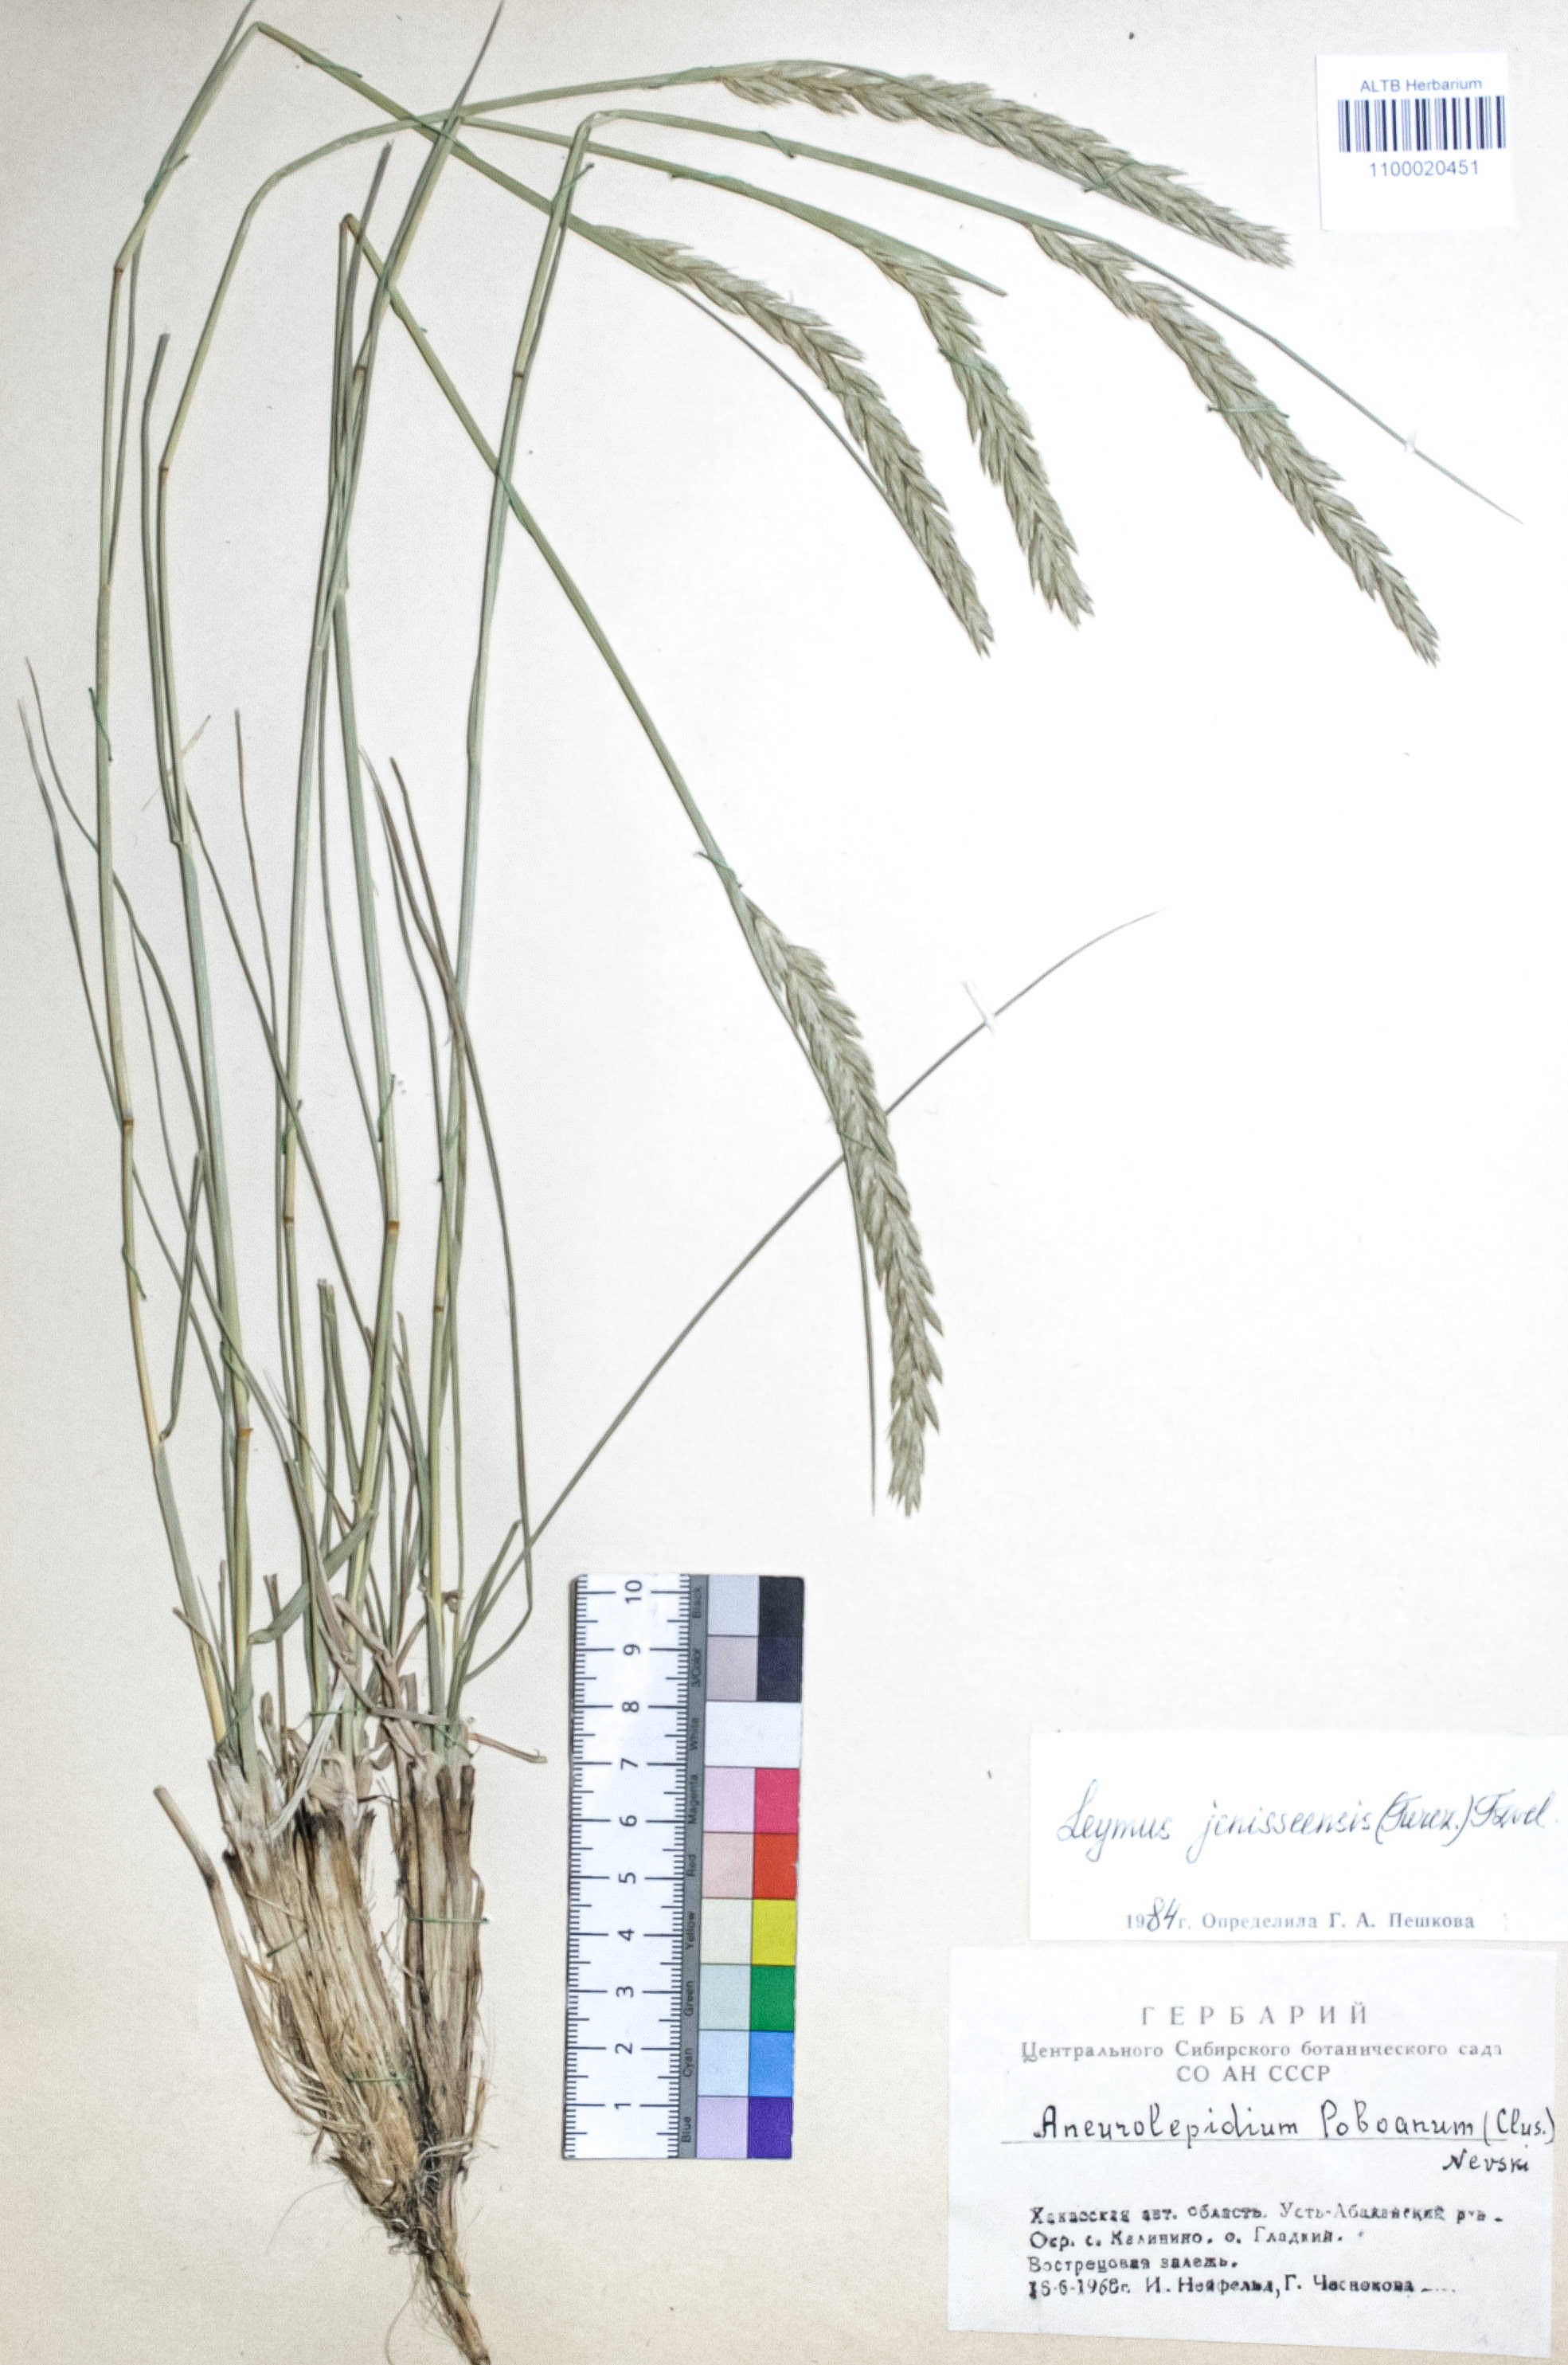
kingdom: Plantae
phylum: Tracheophyta
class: Liliopsida
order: Poales
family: Poaceae
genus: Leymus
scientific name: Leymus jenisseiensis
